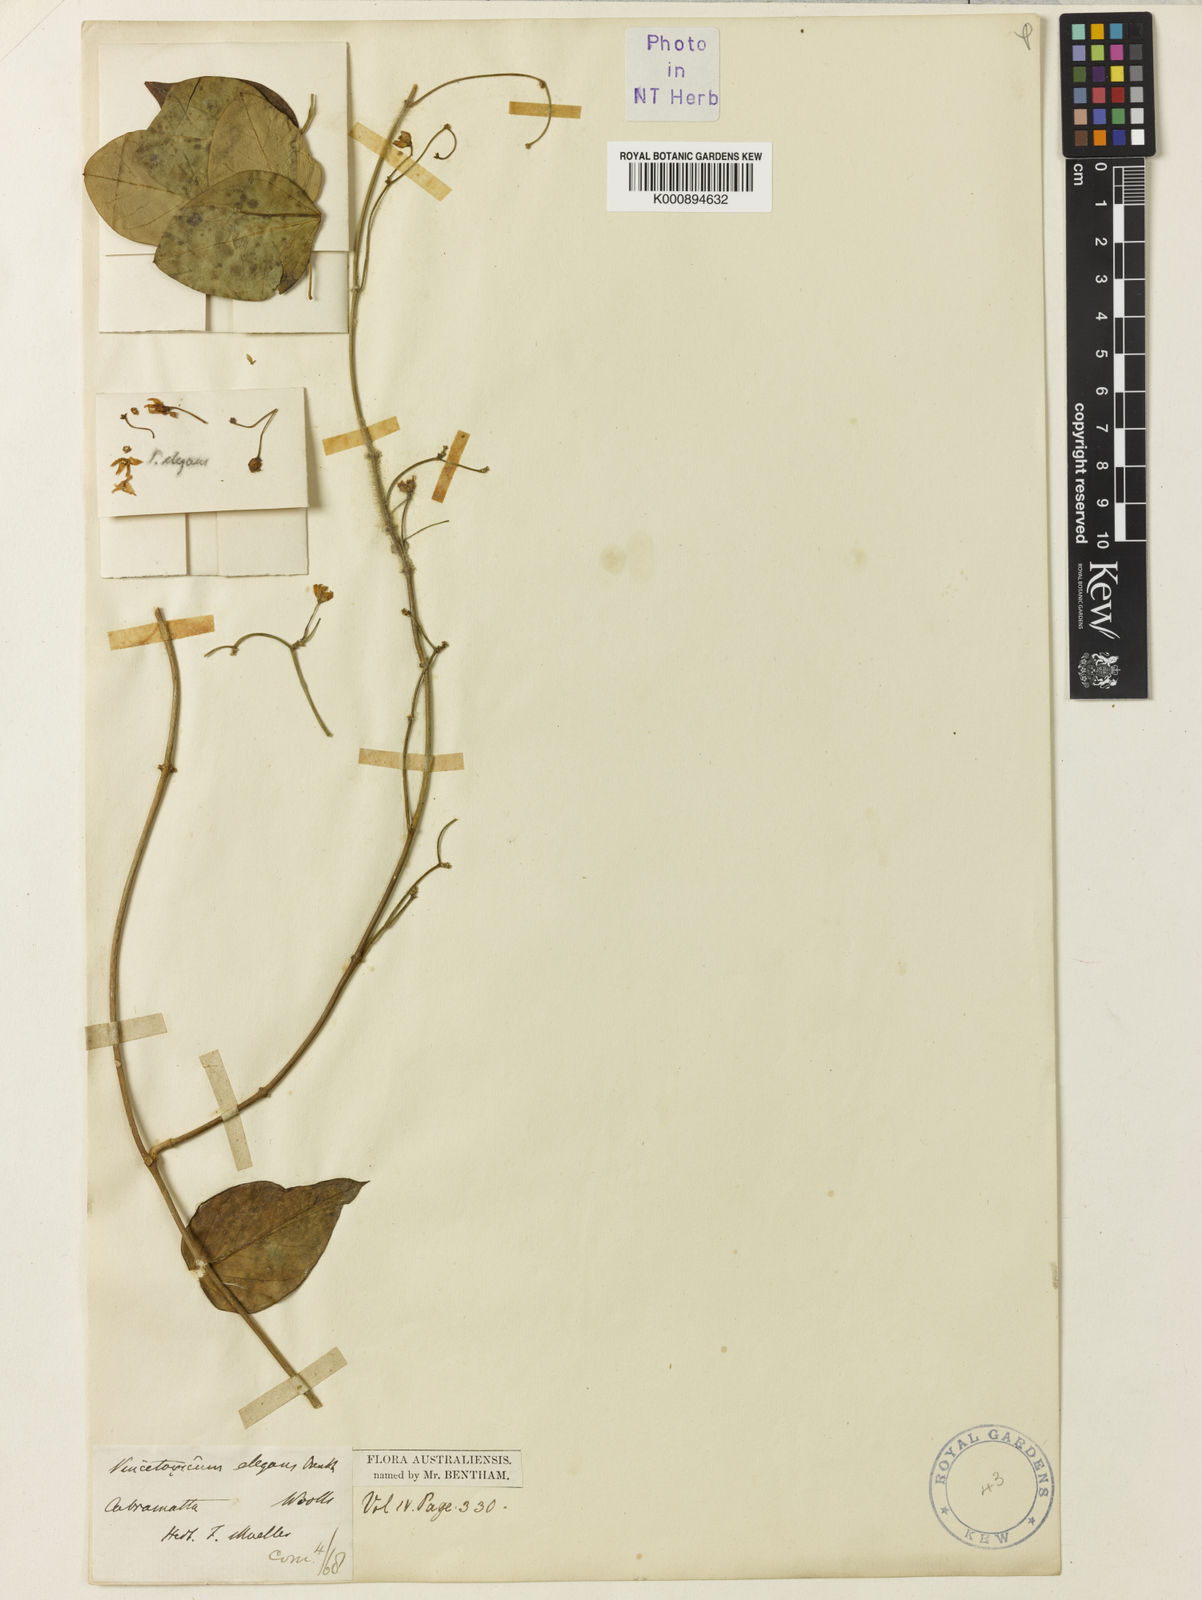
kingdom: Plantae
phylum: Tracheophyta
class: Magnoliopsida
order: Gentianales
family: Apocynaceae
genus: Vincetoxicum
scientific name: Vincetoxicum elegans
